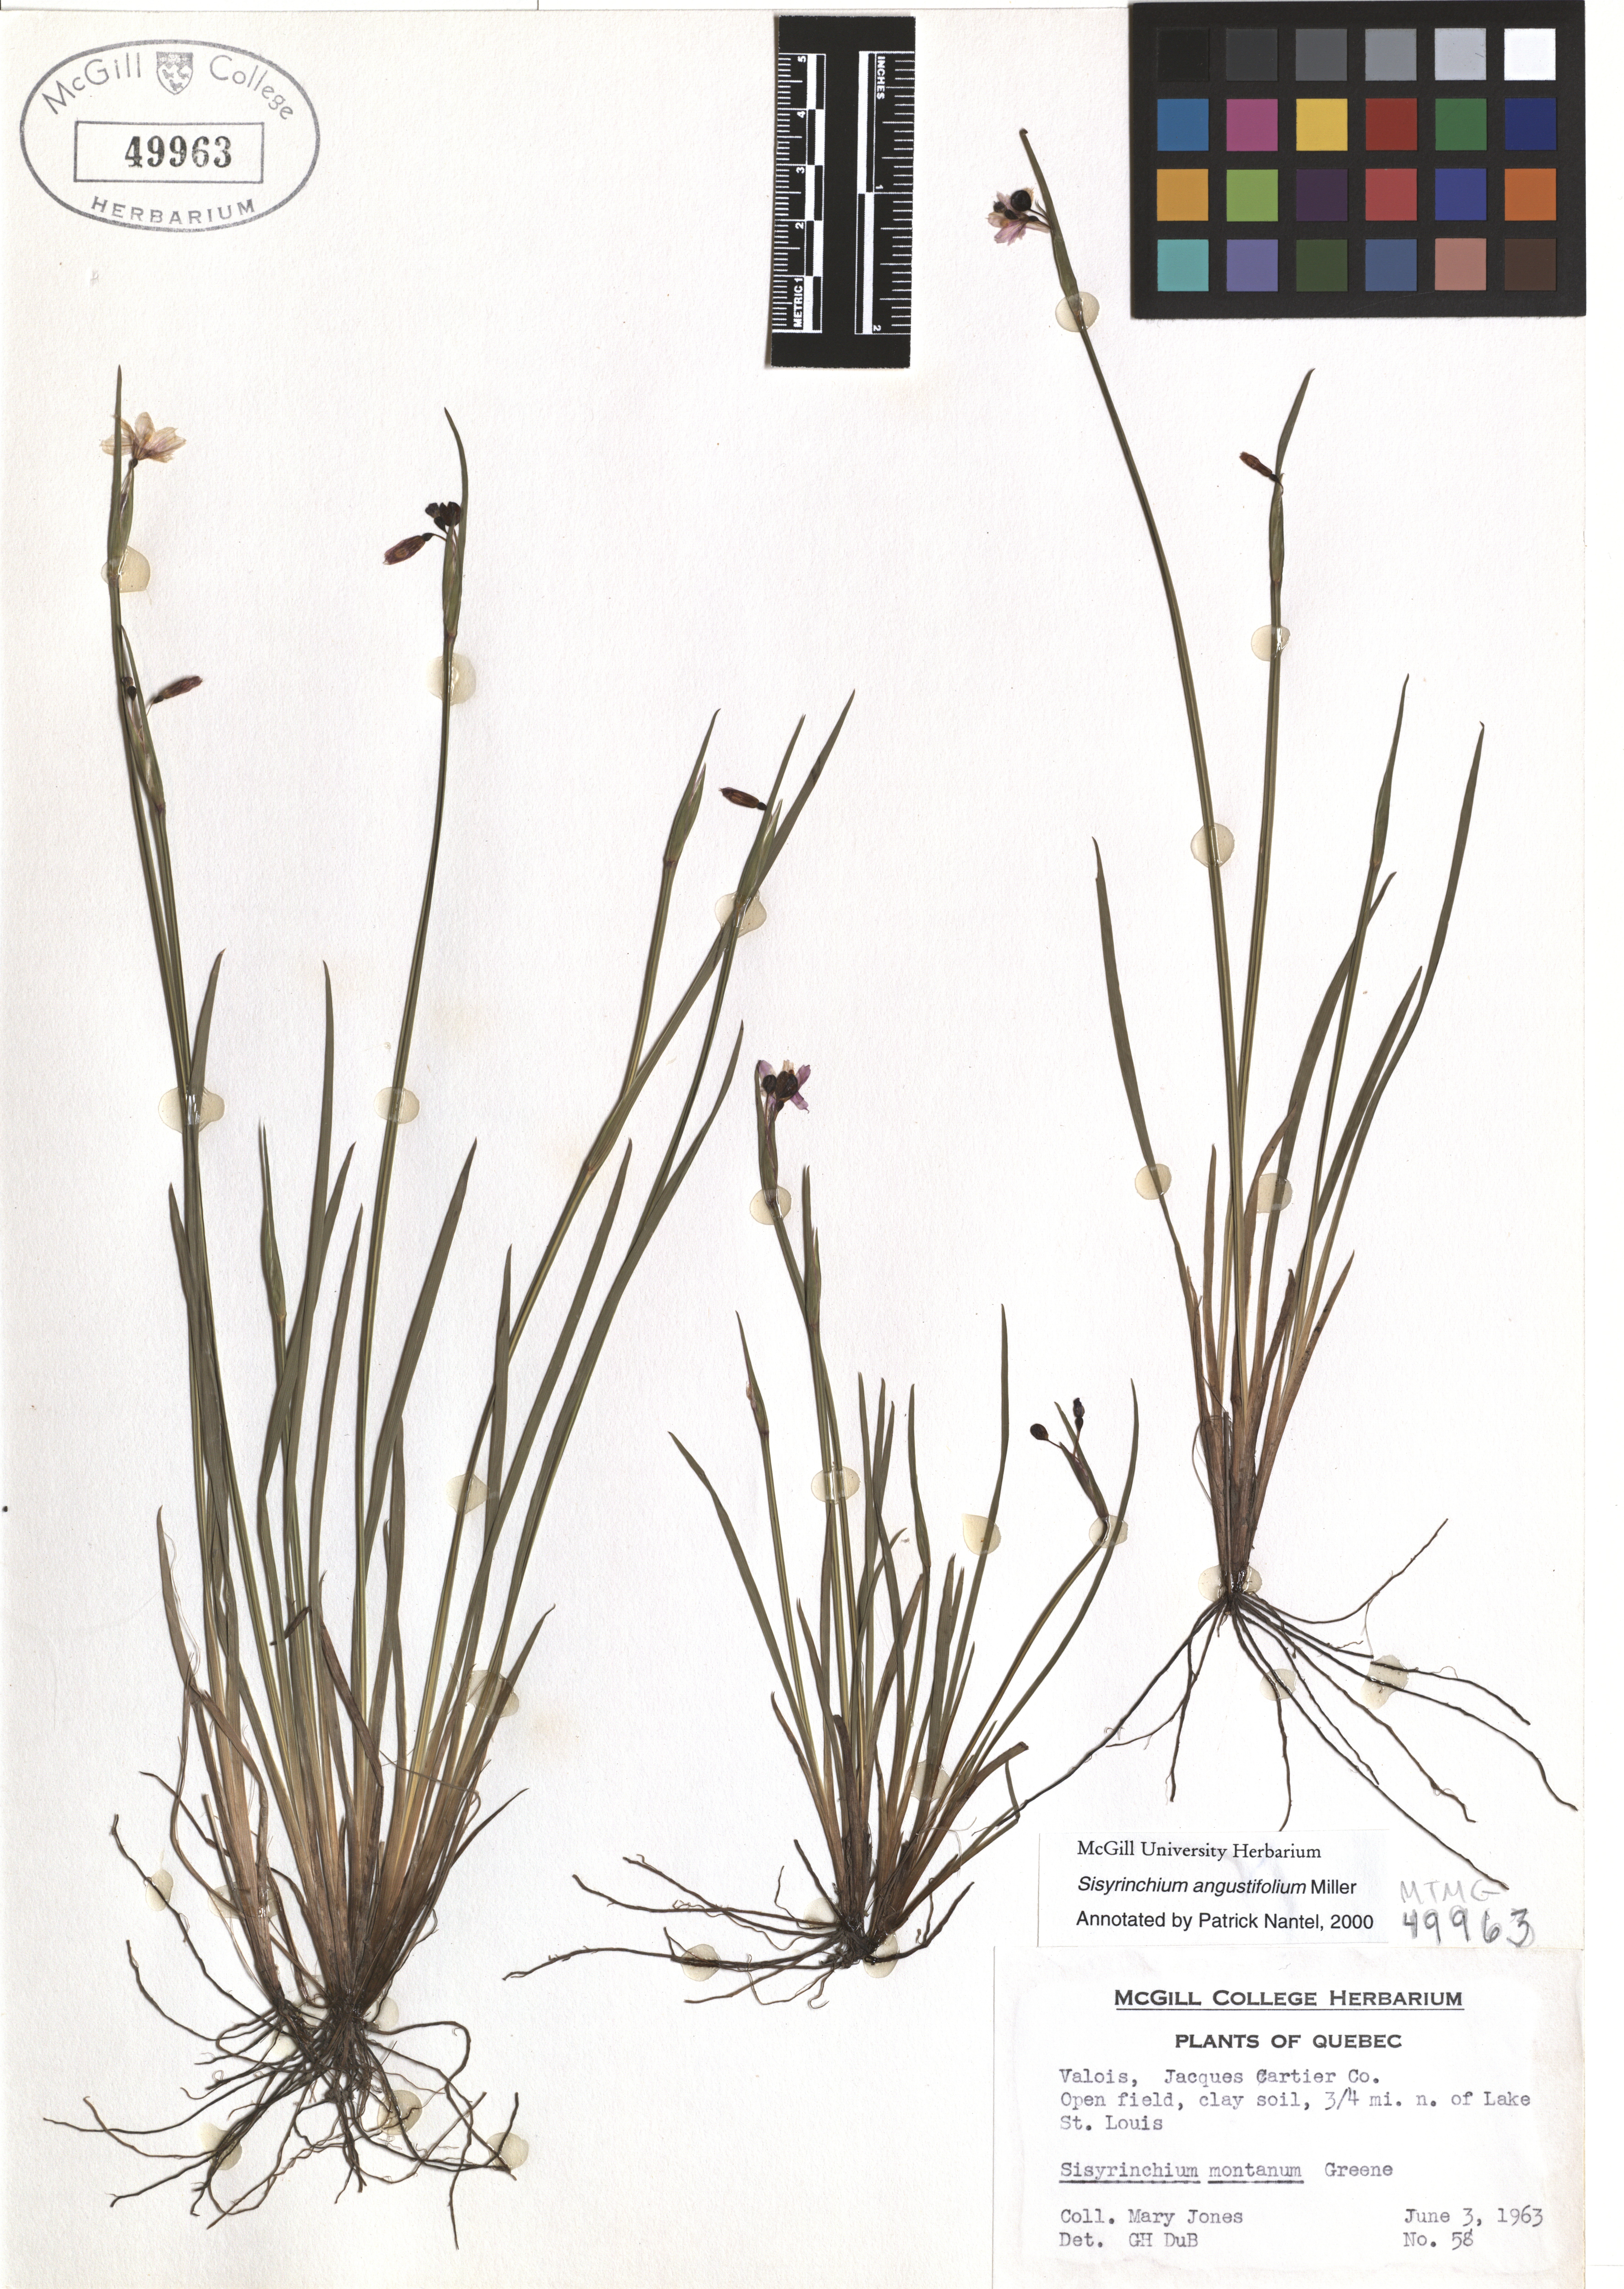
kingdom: Plantae
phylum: Tracheophyta
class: Liliopsida
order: Asparagales
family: Iridaceae
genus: Sisyrinchium
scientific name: Sisyrinchium angustifolium
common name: Narrow-leaf blue-eyed-grass
